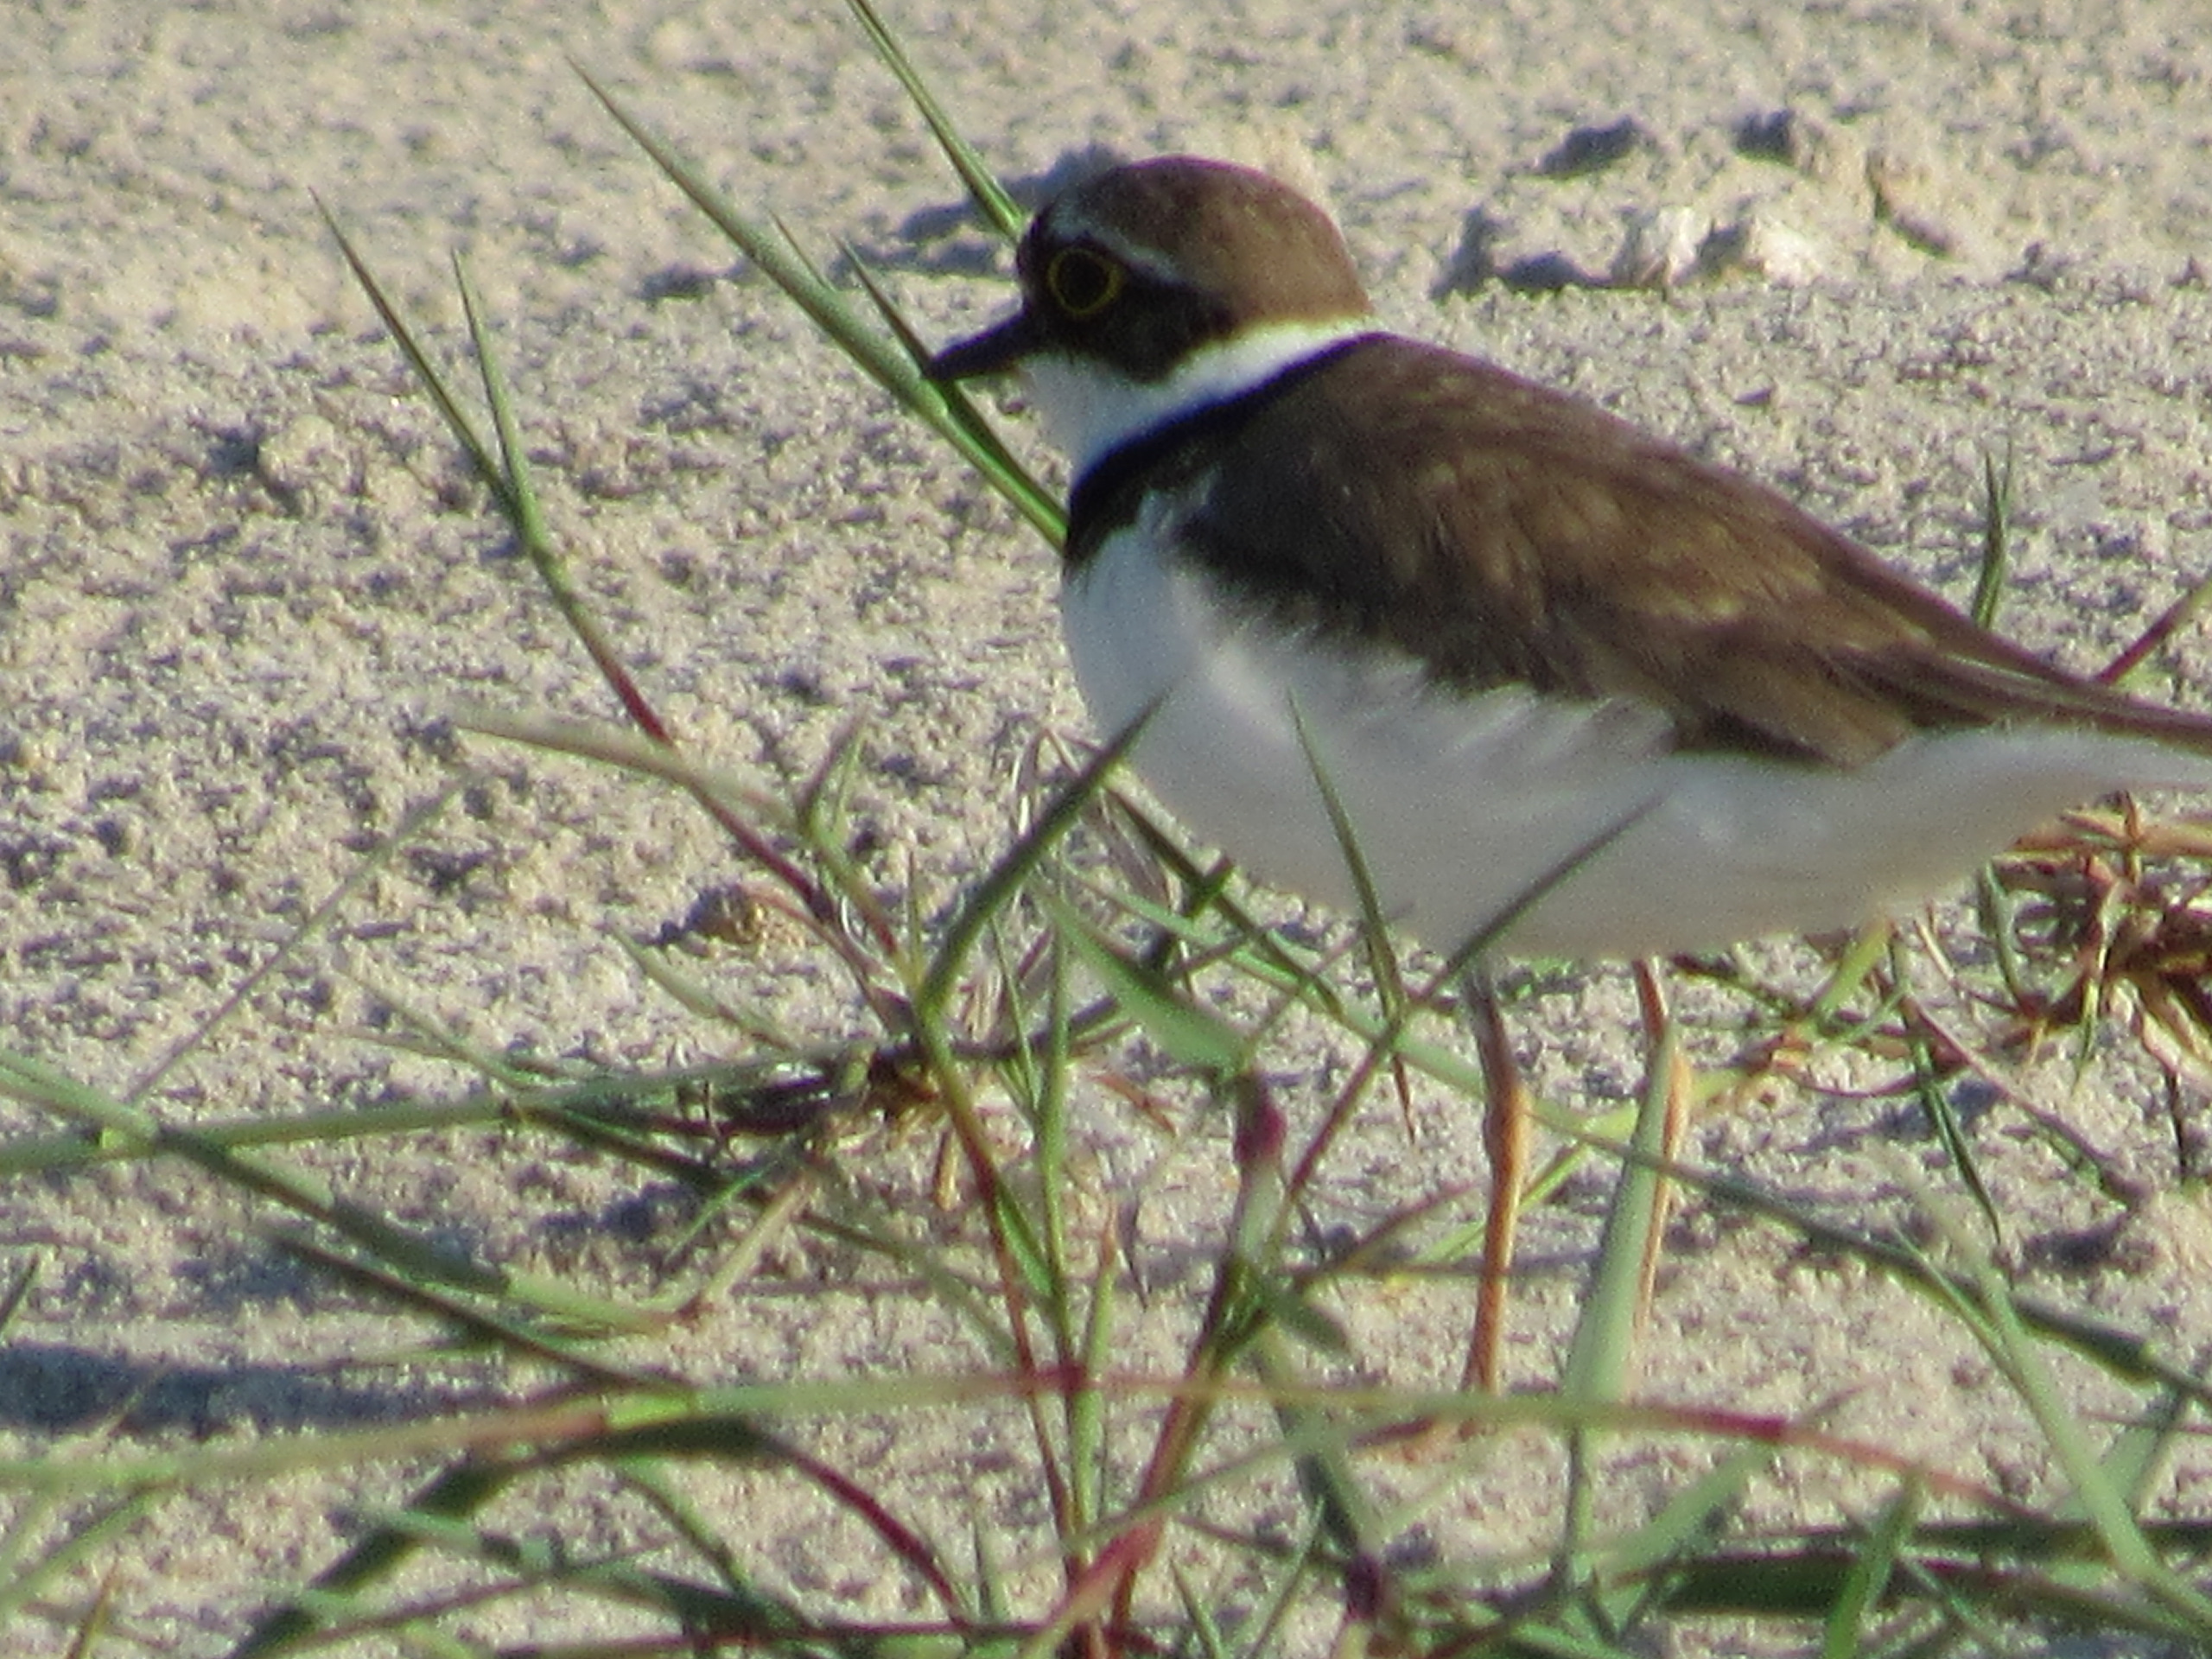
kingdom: Animalia
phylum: Chordata
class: Aves
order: Charadriiformes
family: Charadriidae
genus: Charadrius
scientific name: Charadrius dubius
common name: Lille præstekrave
